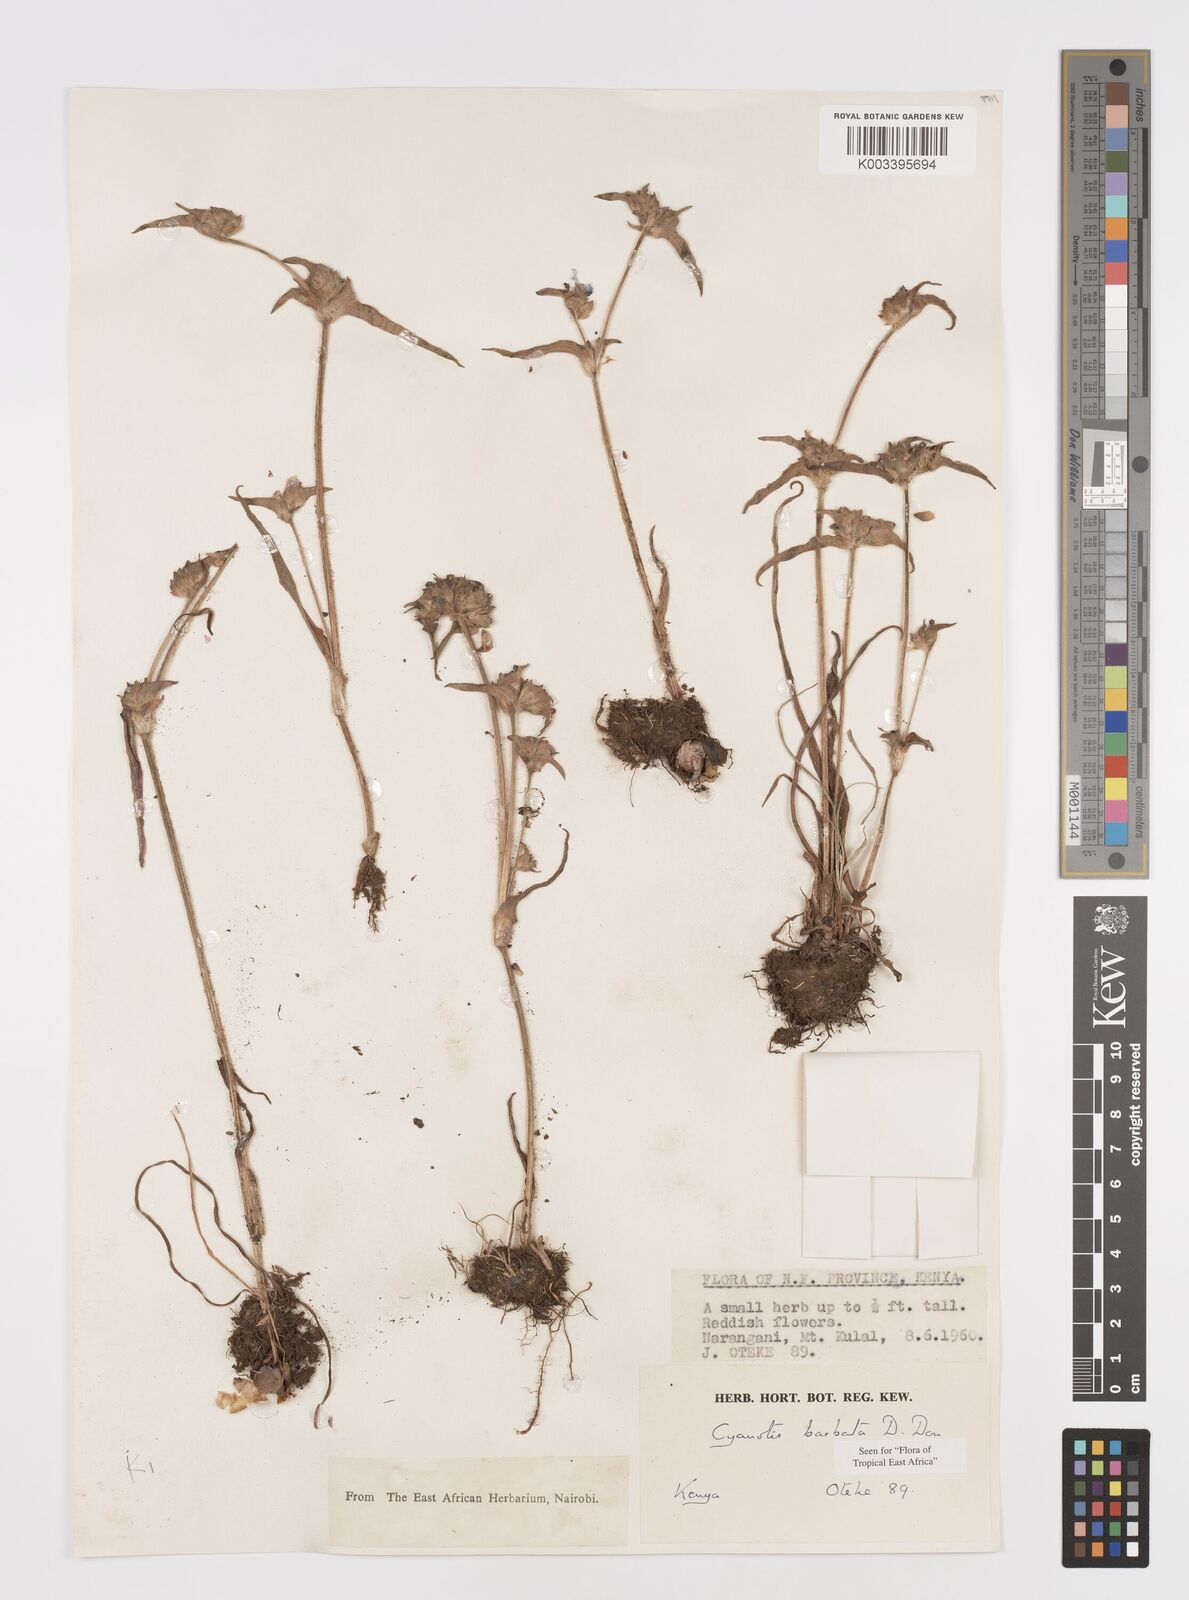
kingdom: Plantae
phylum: Tracheophyta
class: Liliopsida
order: Commelinales
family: Commelinaceae
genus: Cyanotis
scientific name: Cyanotis vaga
